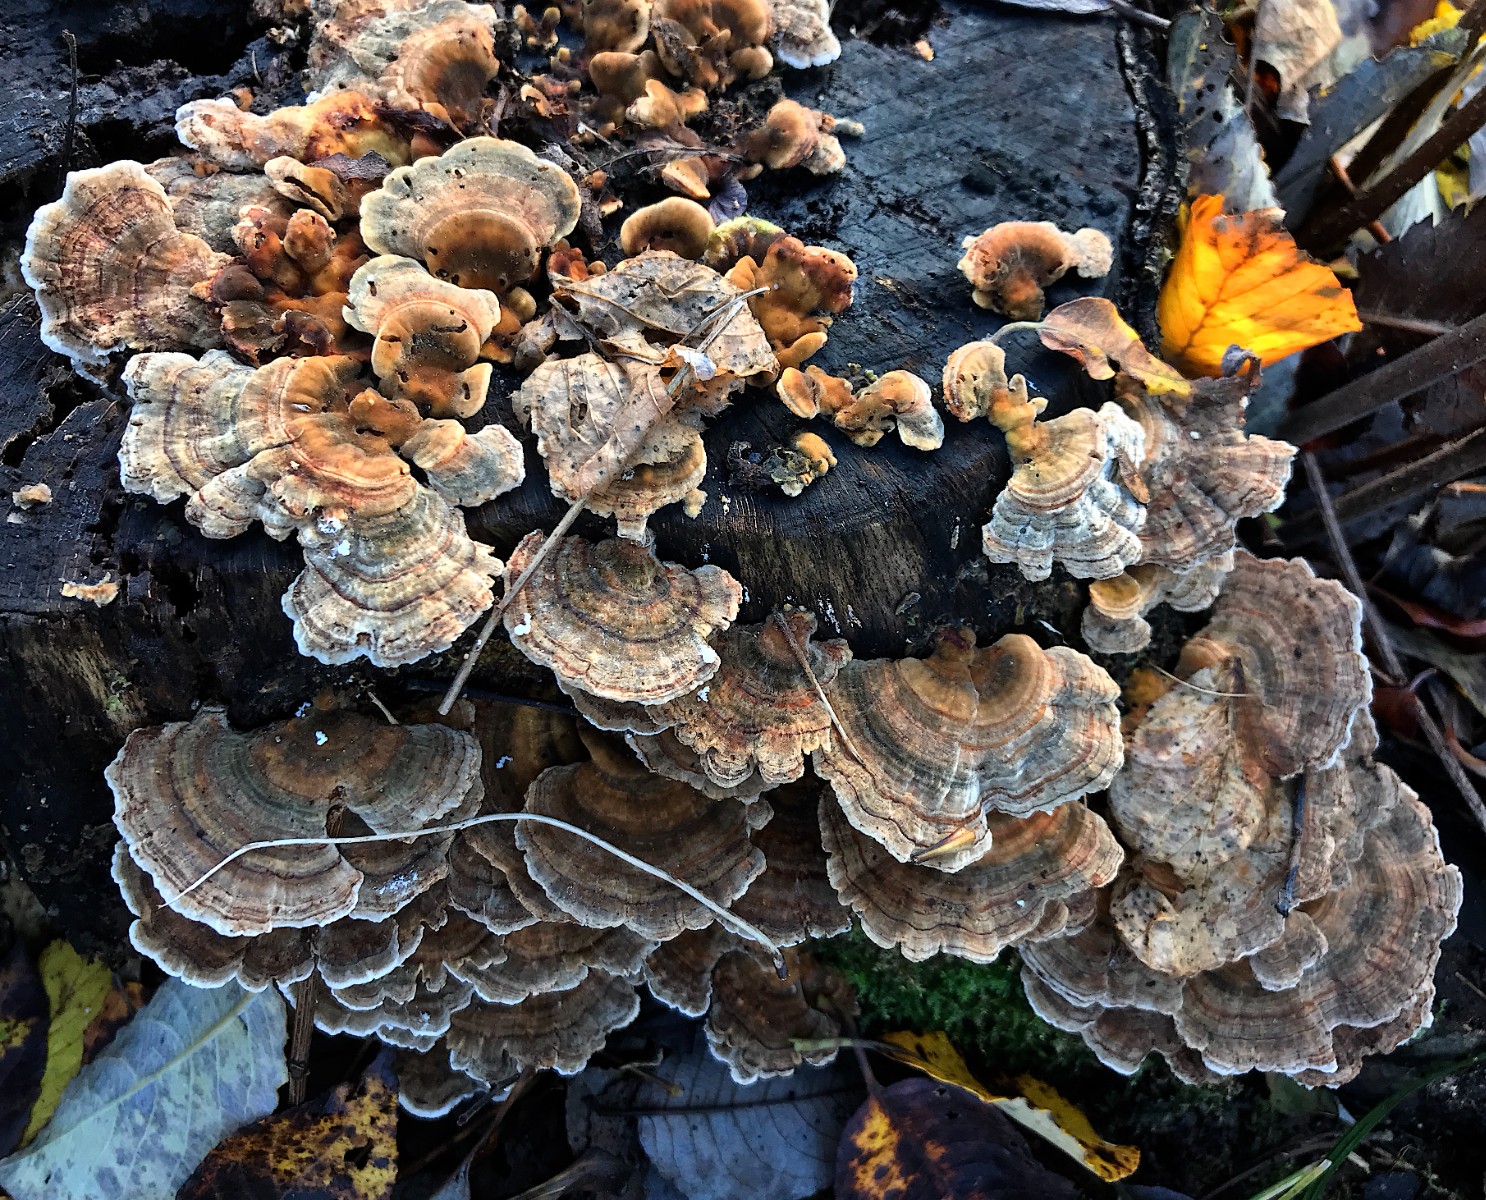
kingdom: Fungi
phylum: Basidiomycota
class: Agaricomycetes
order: Polyporales
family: Polyporaceae
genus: Trametes
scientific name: Trametes versicolor
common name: broget læderporesvamp
